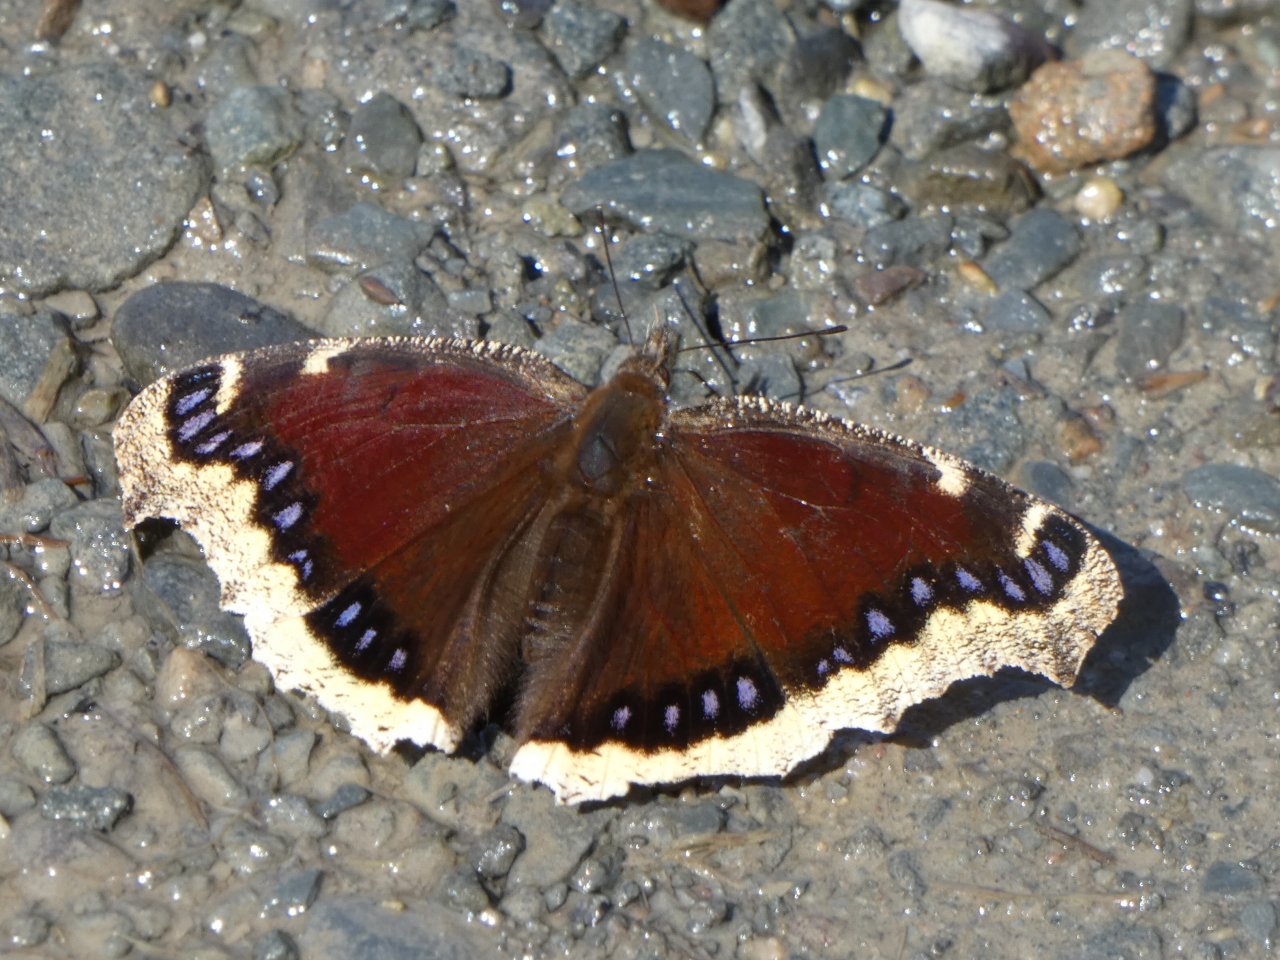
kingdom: Animalia
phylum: Arthropoda
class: Insecta
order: Lepidoptera
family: Nymphalidae
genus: Nymphalis
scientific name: Nymphalis antiopa
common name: Mourning Cloak
